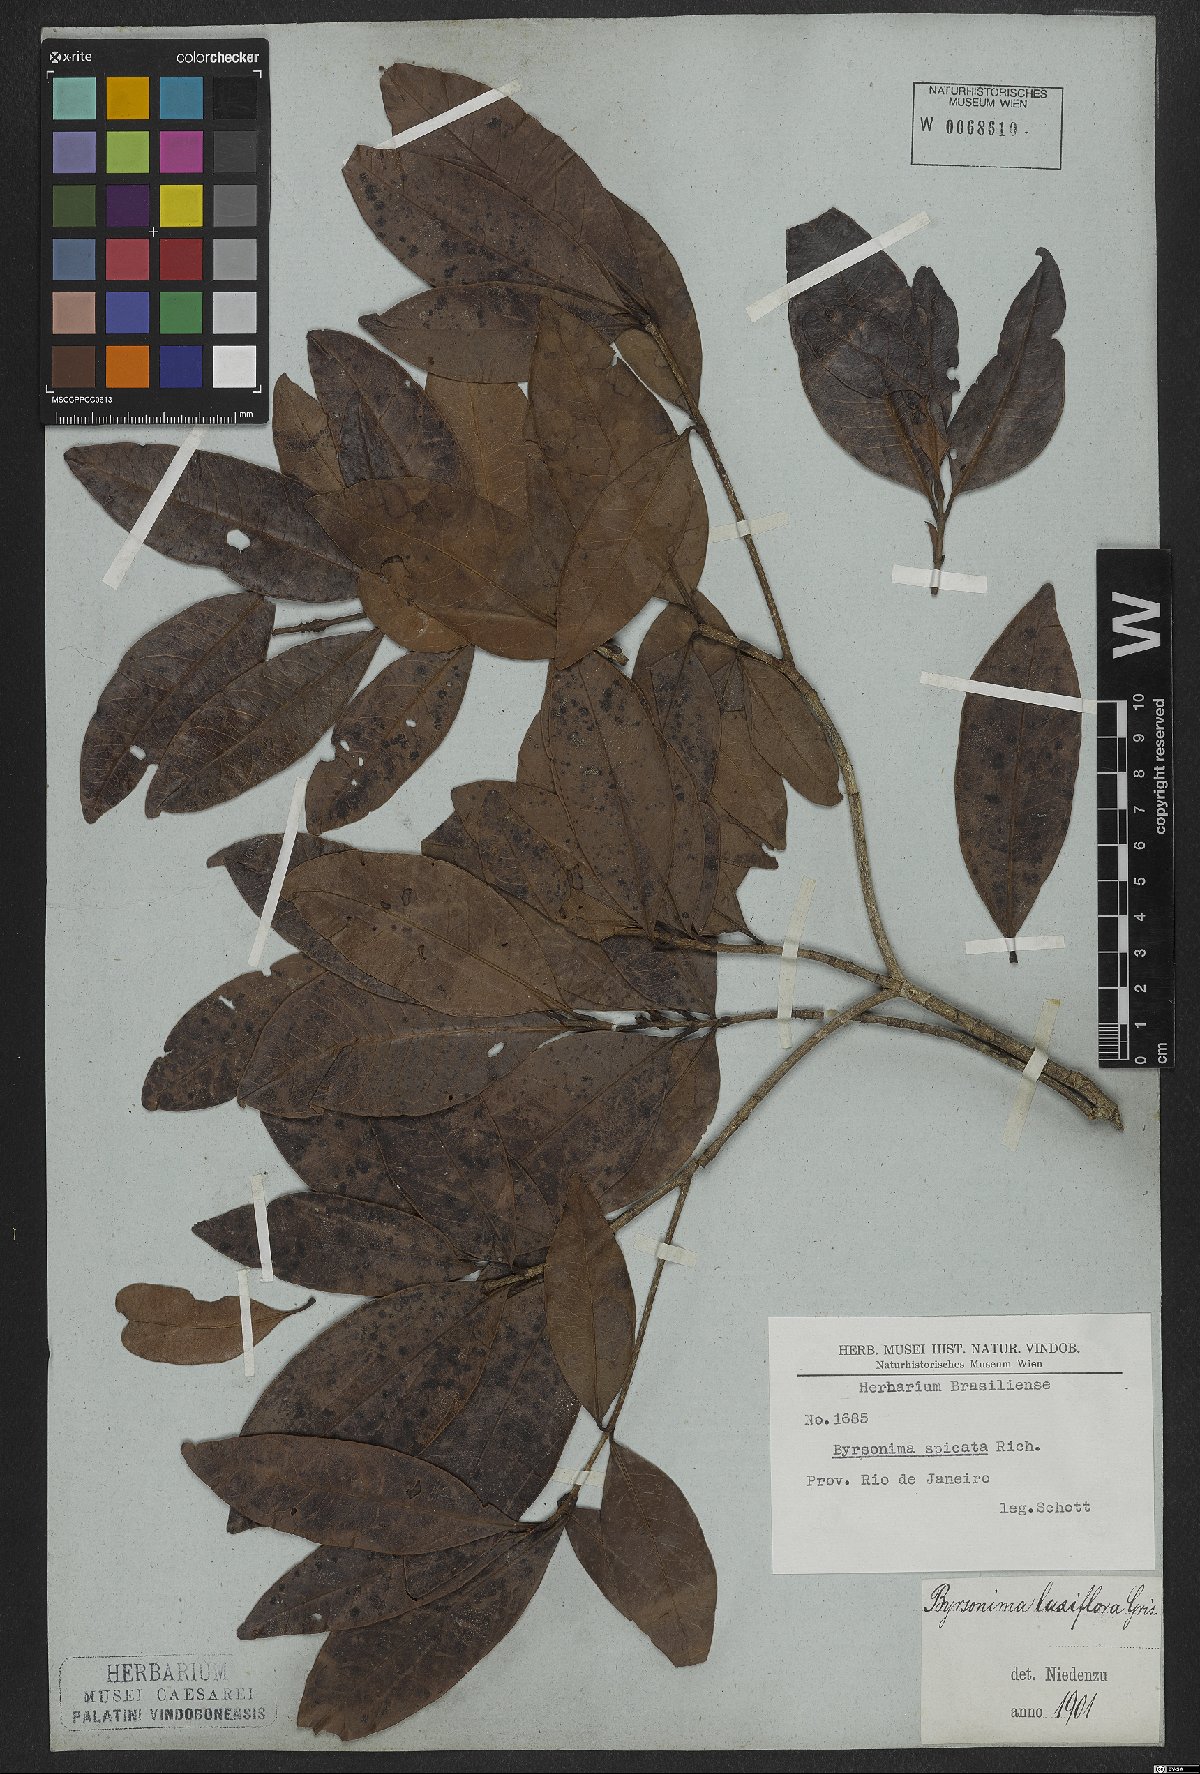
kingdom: Plantae
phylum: Tracheophyta
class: Magnoliopsida
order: Malpighiales
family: Malpighiaceae
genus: Byrsonima
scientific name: Byrsonima laxiflora
